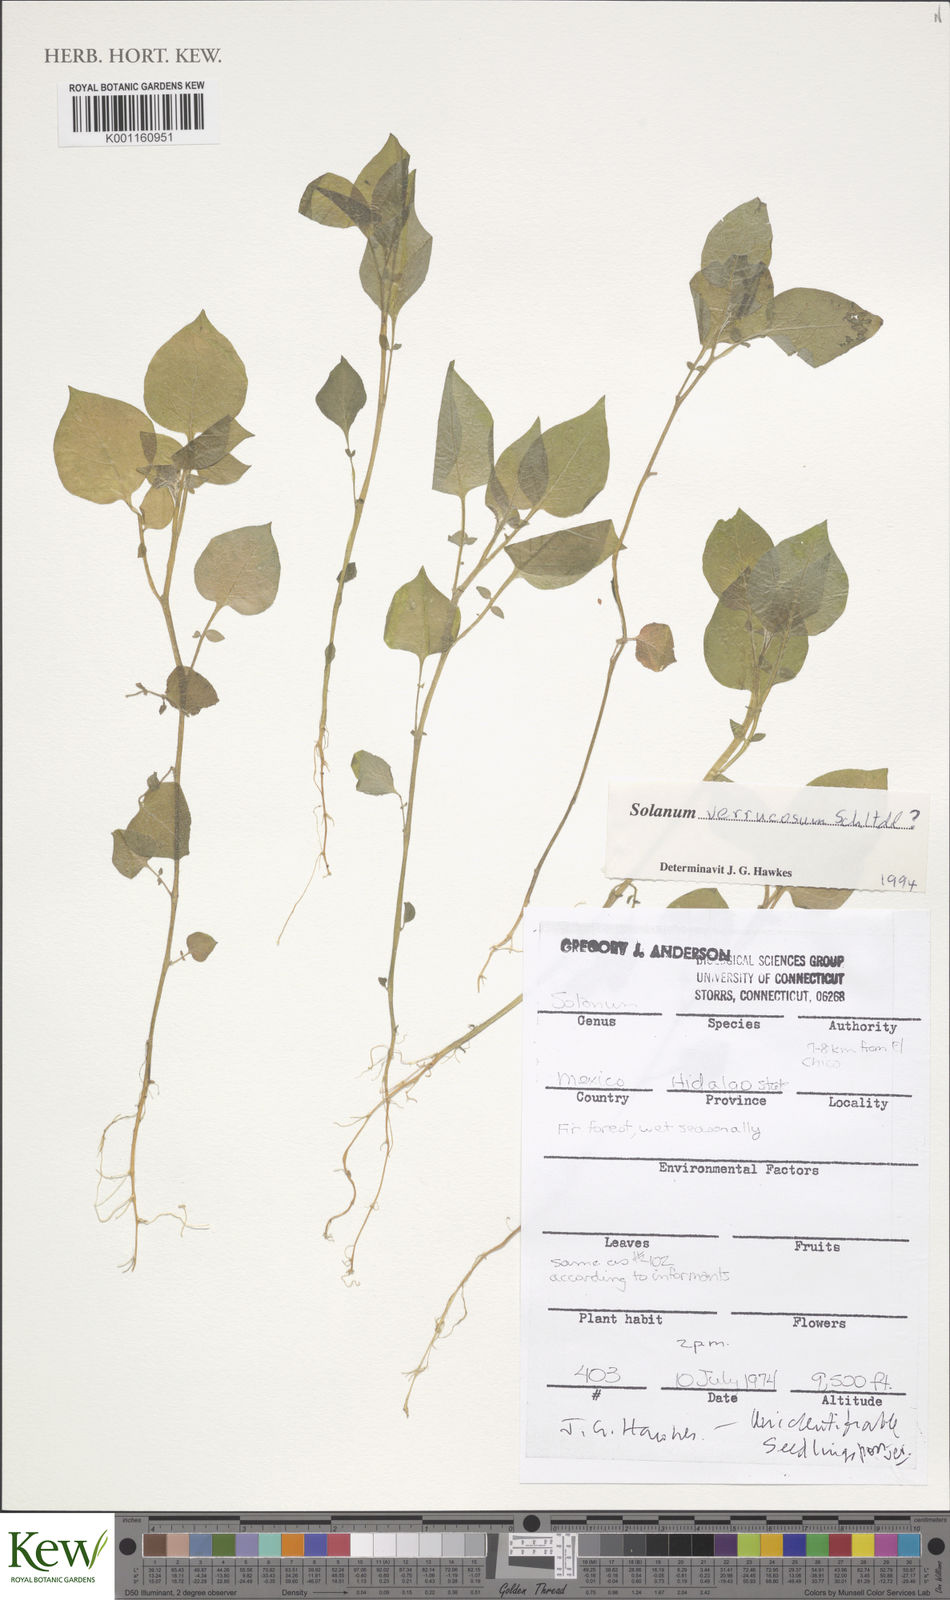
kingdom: Plantae
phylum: Tracheophyta
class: Magnoliopsida
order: Solanales
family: Solanaceae
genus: Solanum
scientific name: Solanum verrucosum
